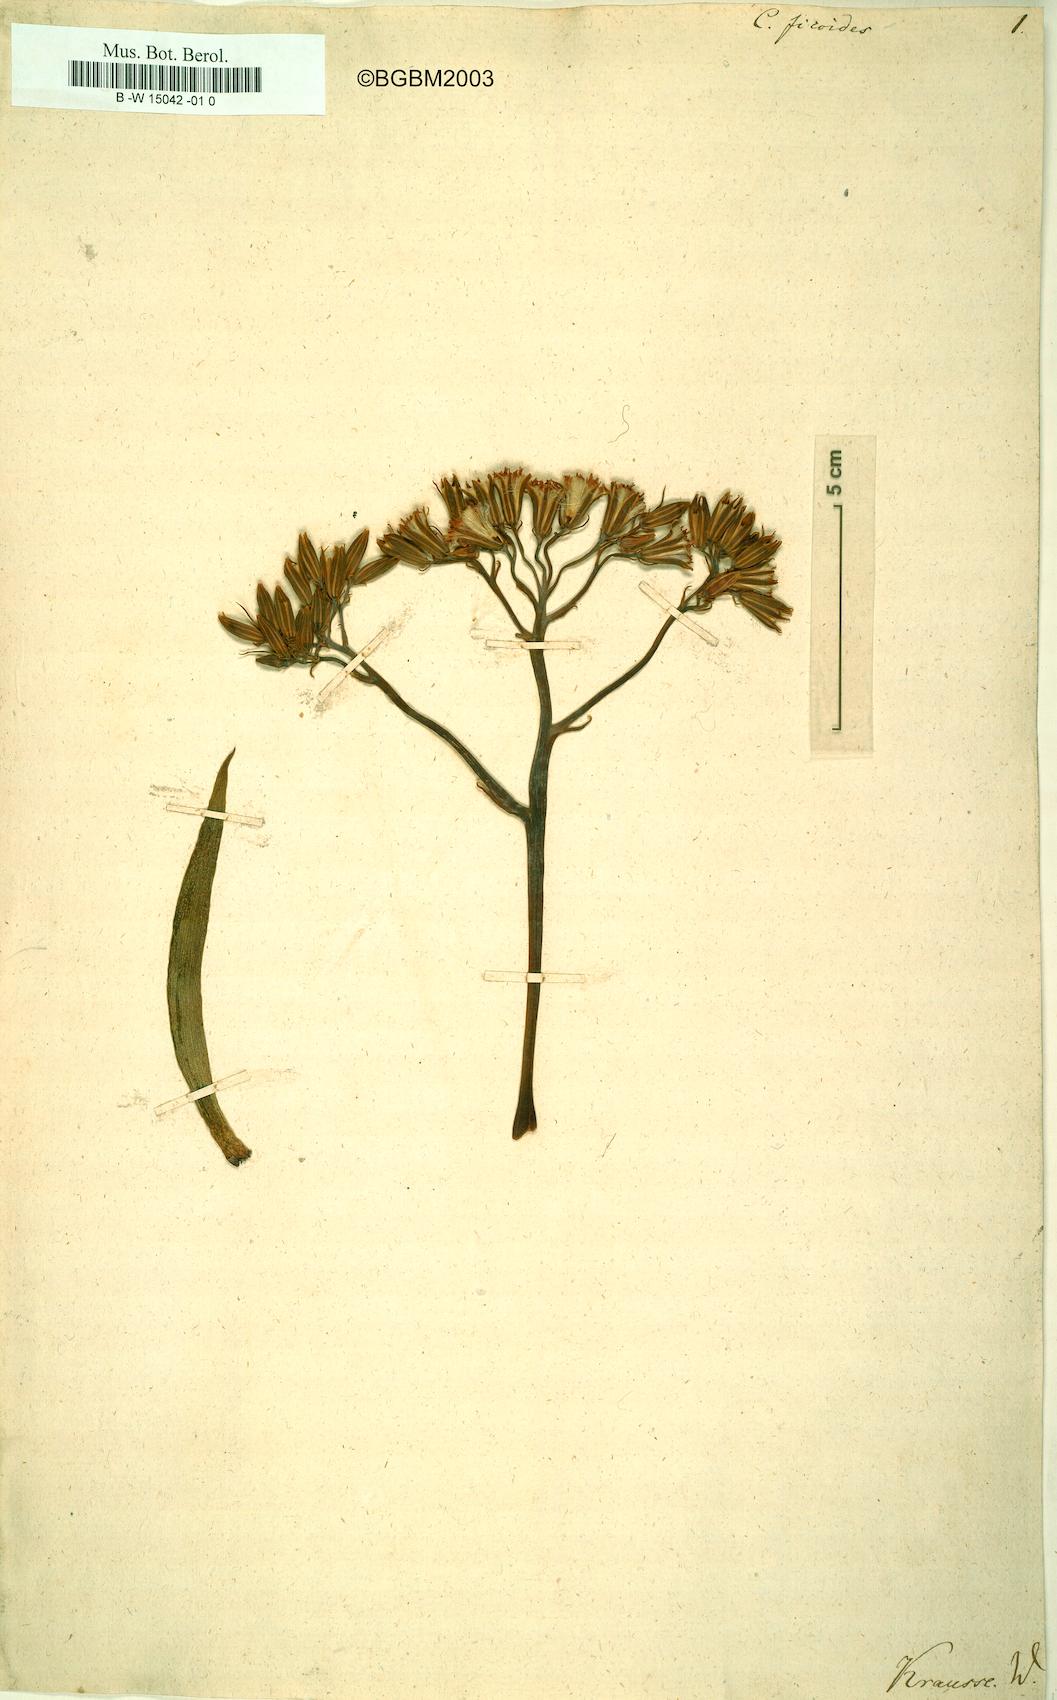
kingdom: Plantae
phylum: Tracheophyta
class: Magnoliopsida
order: Asterales
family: Asteraceae
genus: Curio
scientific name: Curio ficoides
